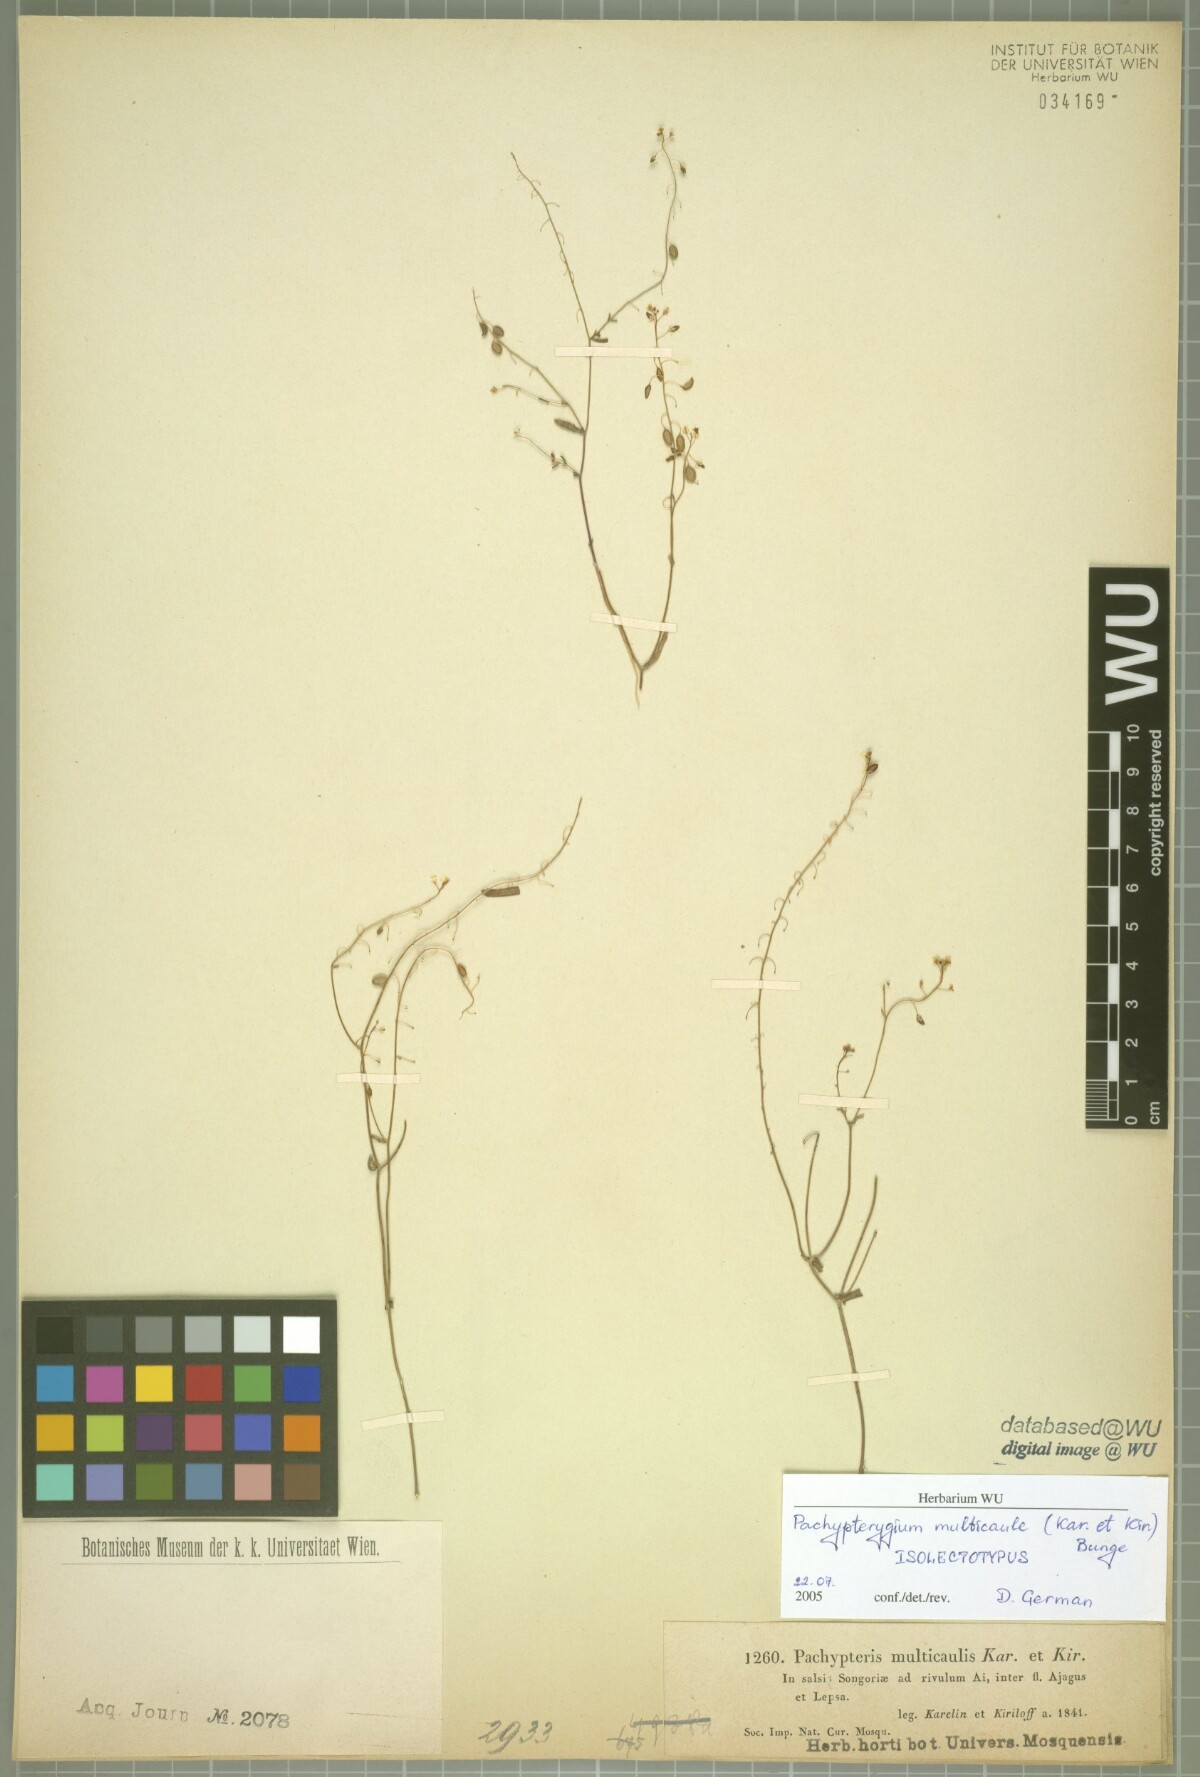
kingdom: Plantae
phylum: Tracheophyta
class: Magnoliopsida
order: Brassicales
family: Brassicaceae
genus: Isatis
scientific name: Isatis multicaulis
